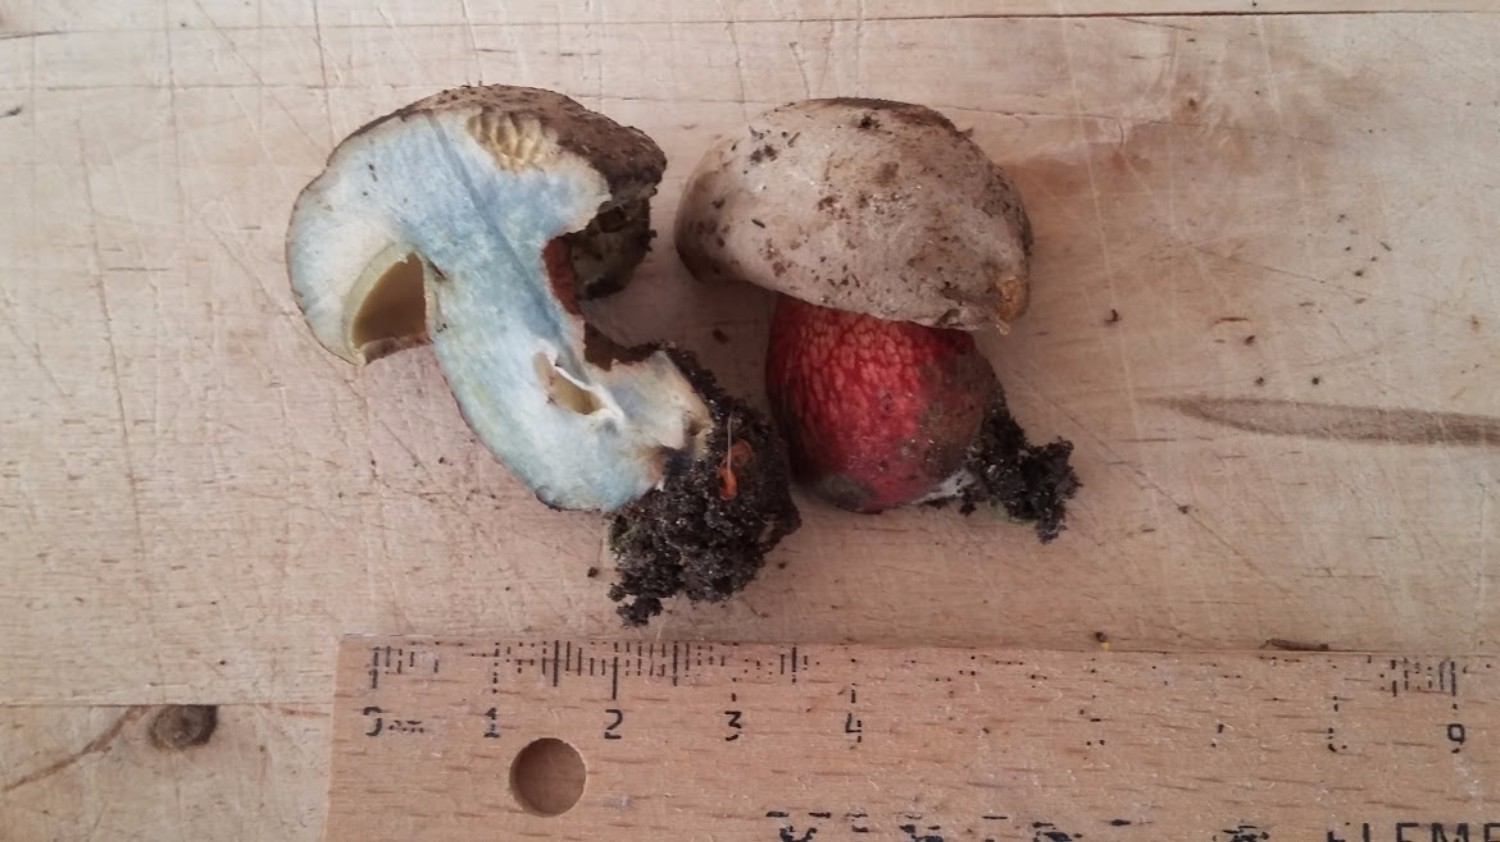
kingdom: Fungi
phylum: Basidiomycota
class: Agaricomycetes
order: Boletales
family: Boletaceae
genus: Caloboletus
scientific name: Caloboletus calopus
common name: skønfodet rørhat
